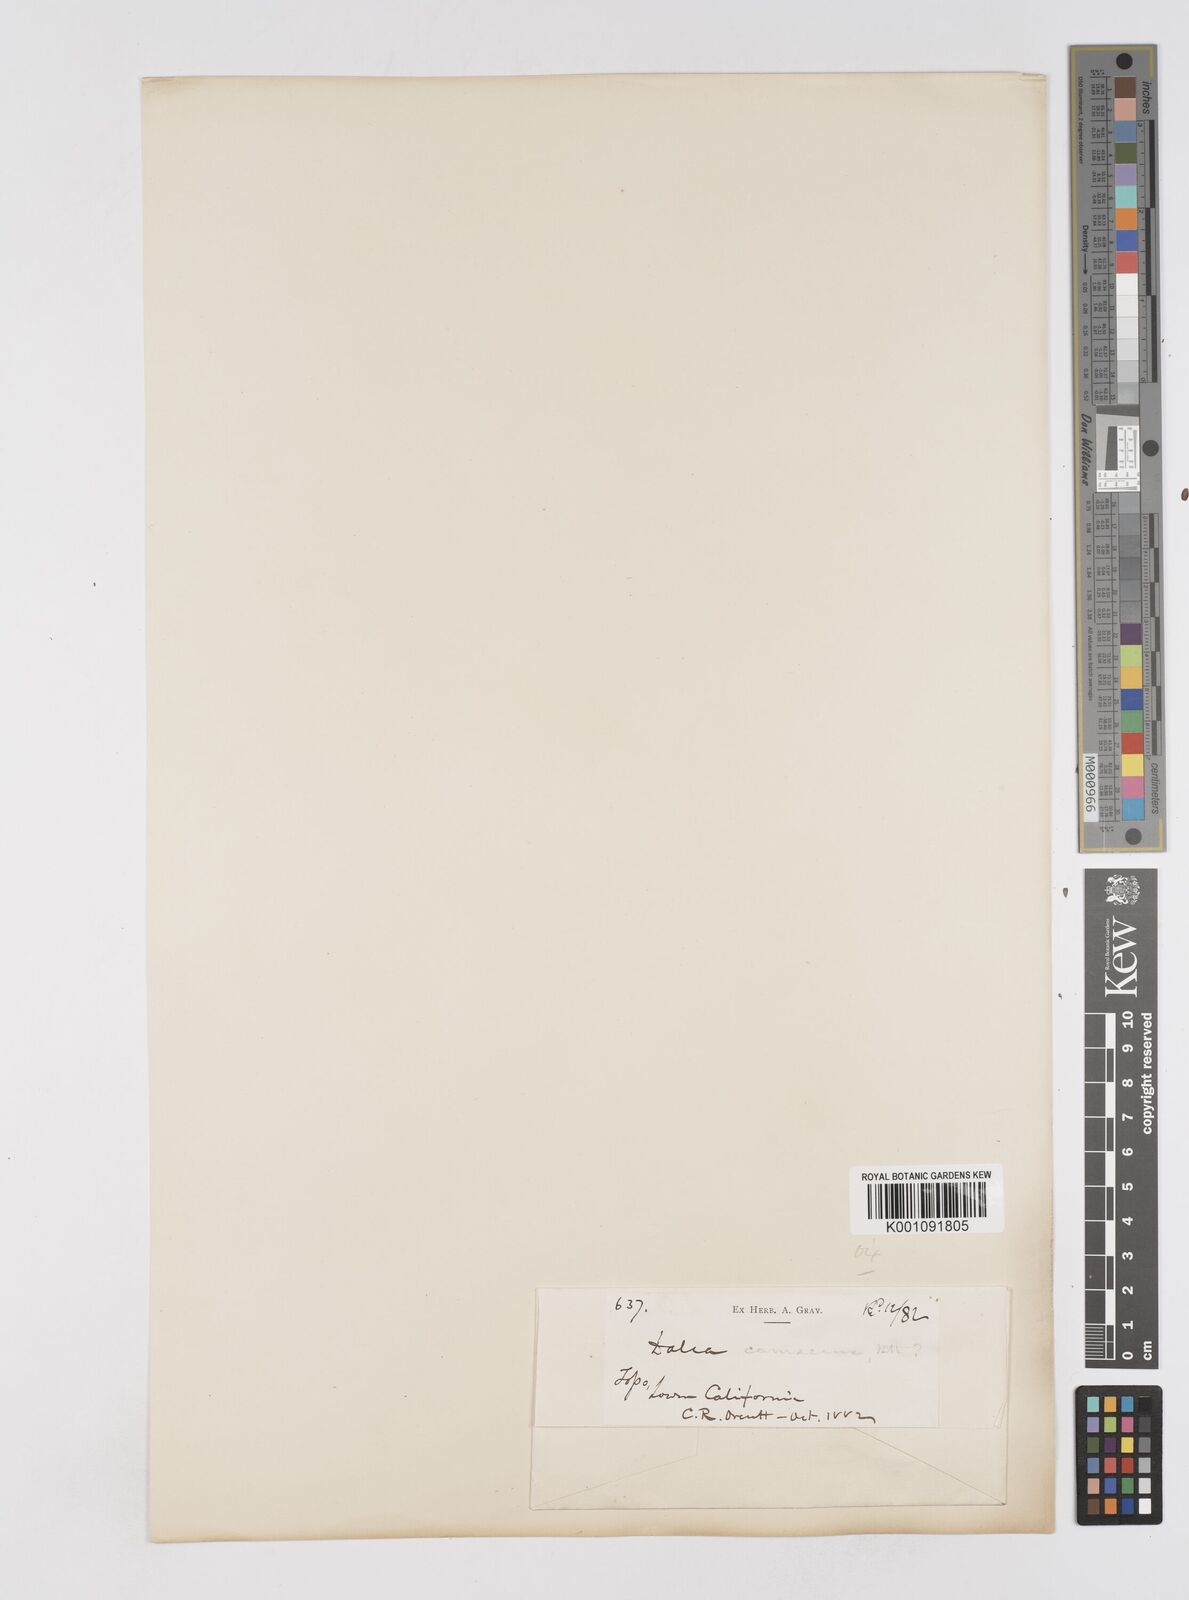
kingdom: Plantae
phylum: Tracheophyta
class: Magnoliopsida
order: Fabales
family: Fabaceae
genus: Marina
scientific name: Marina peninsularis
